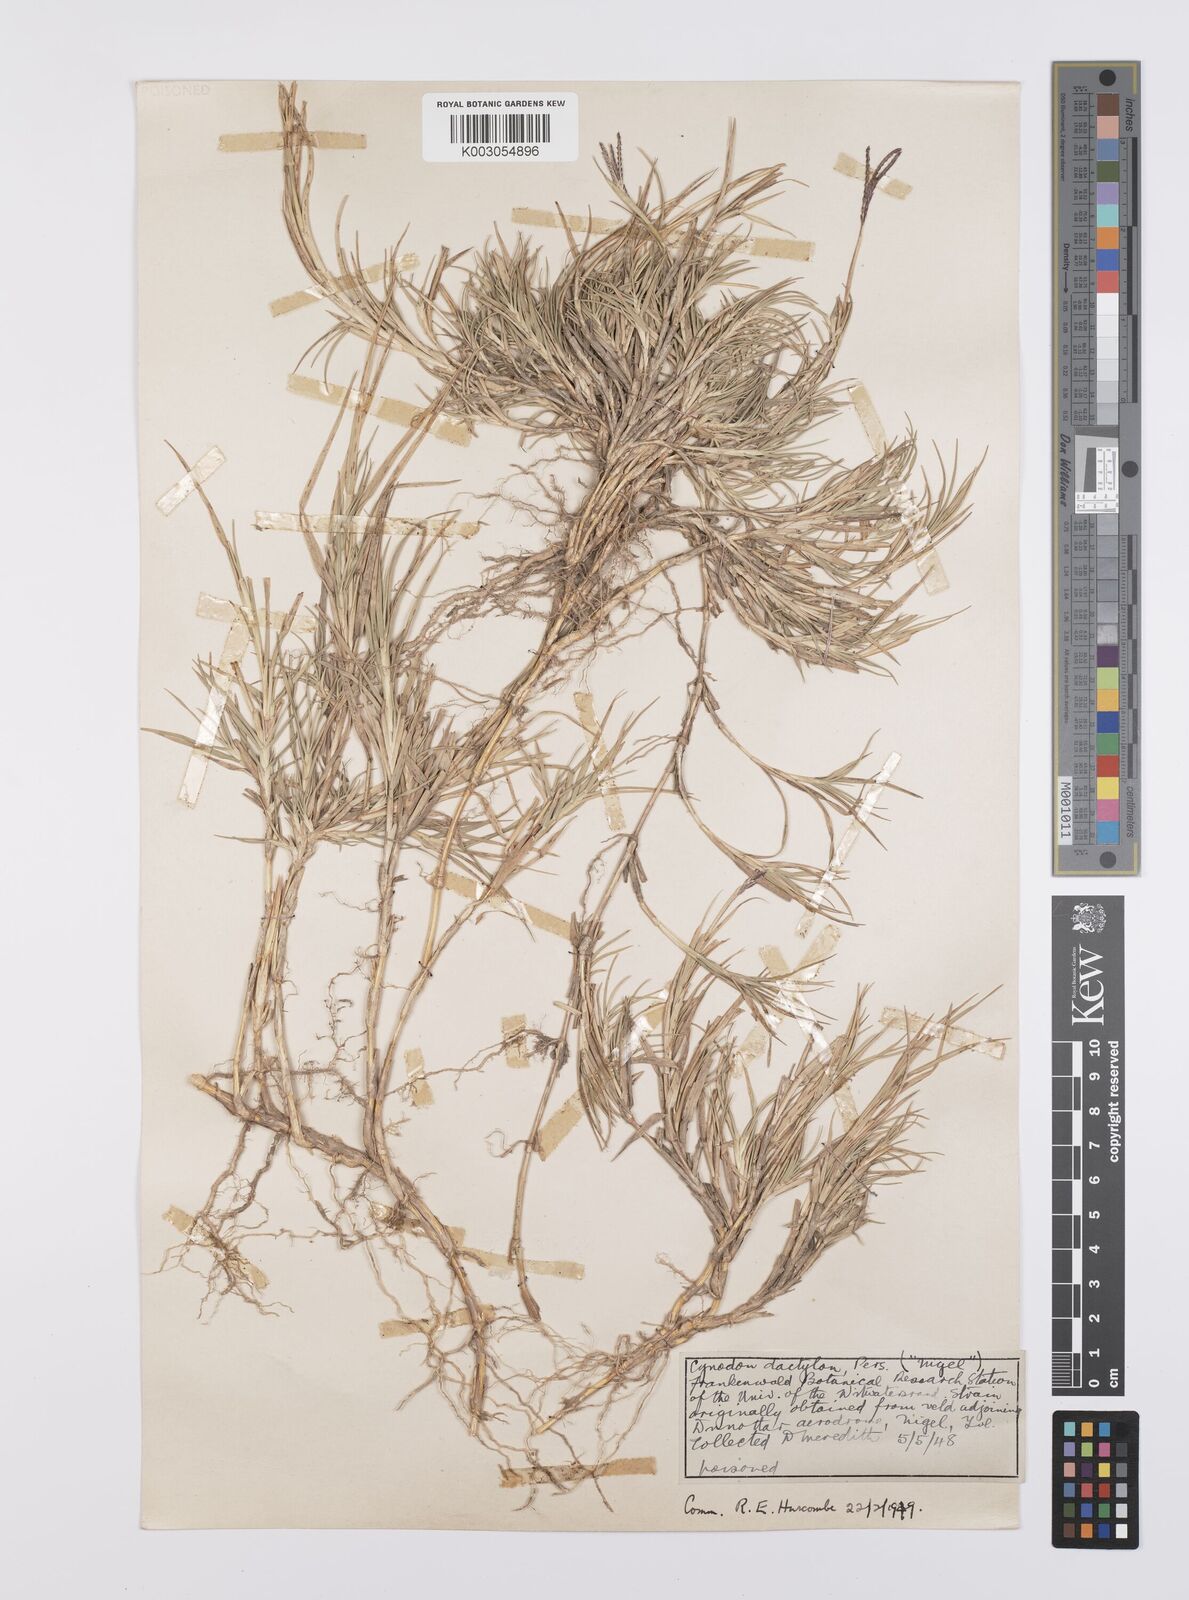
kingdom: Plantae
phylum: Tracheophyta
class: Liliopsida
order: Poales
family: Poaceae
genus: Cynodon
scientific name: Cynodon dactylon
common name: Bermuda grass
